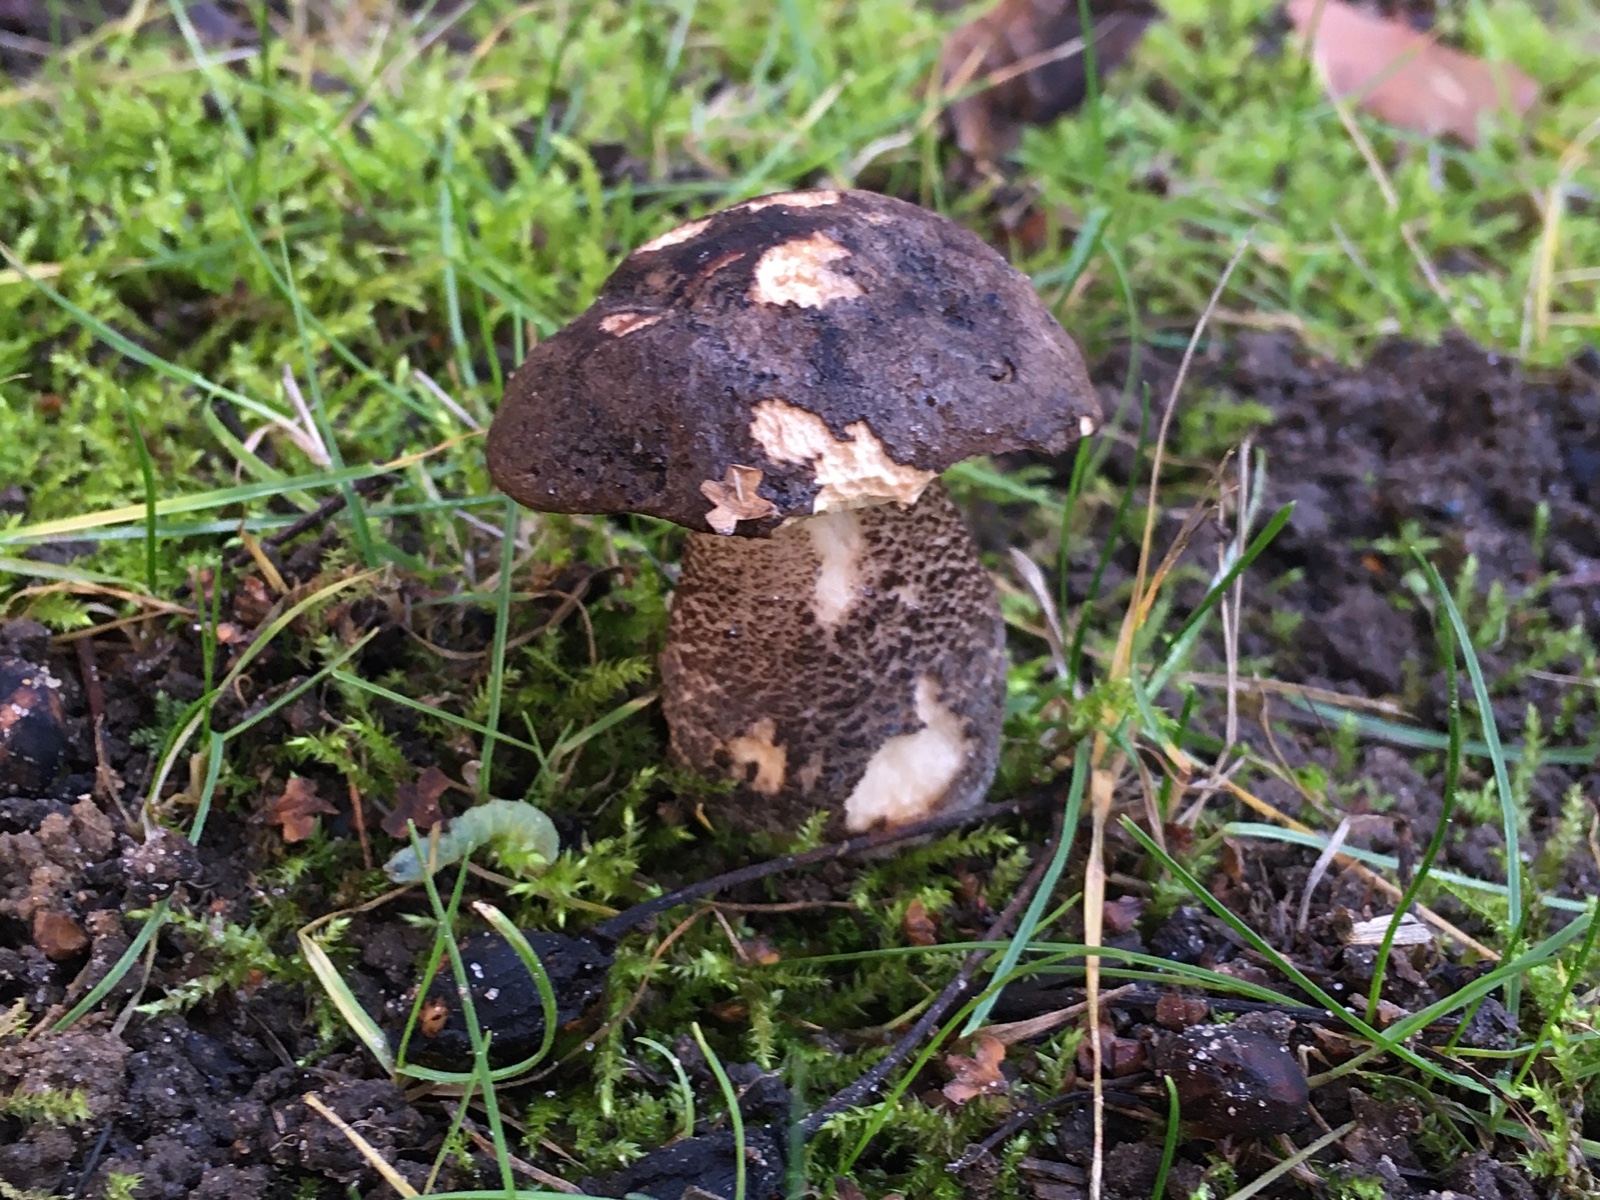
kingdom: Fungi
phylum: Basidiomycota
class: Agaricomycetes
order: Boletales
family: Boletaceae
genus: Leccinum
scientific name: Leccinum melaneum
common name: mørk skælrørhat
